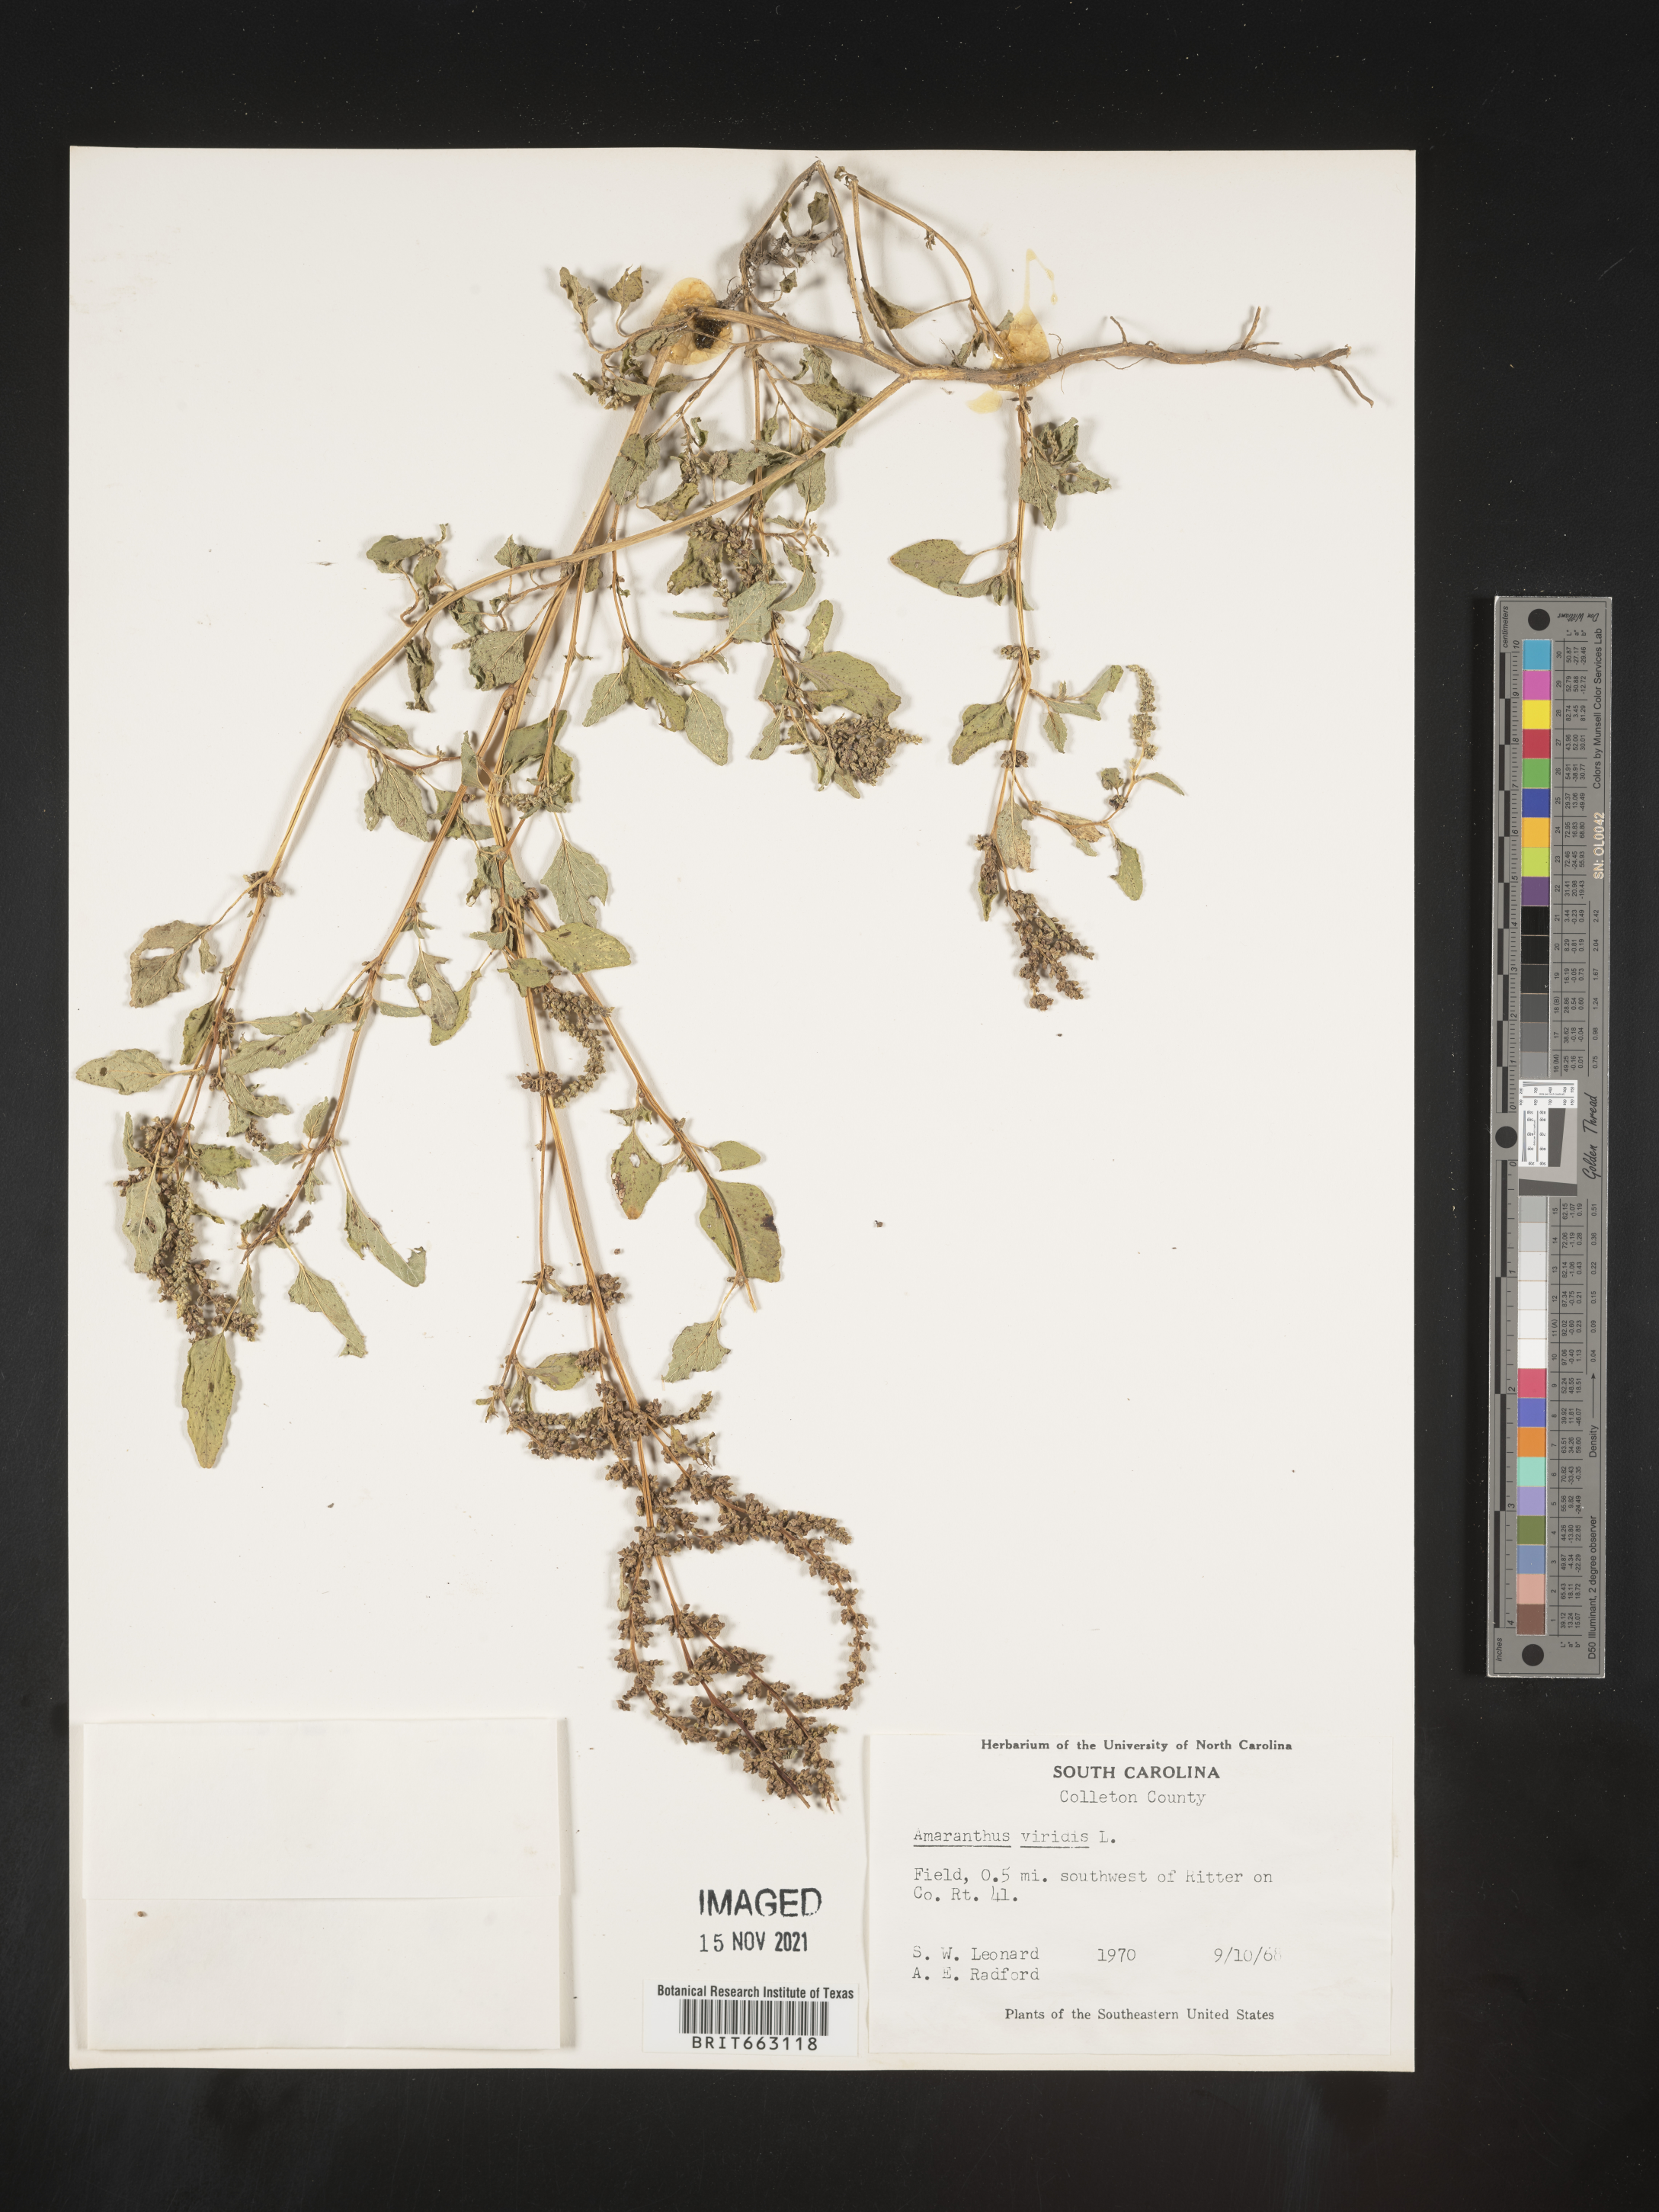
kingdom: Plantae
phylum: Tracheophyta
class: Magnoliopsida
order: Caryophyllales
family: Amaranthaceae
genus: Amaranthus
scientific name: Amaranthus viridis
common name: Slender amaranth
